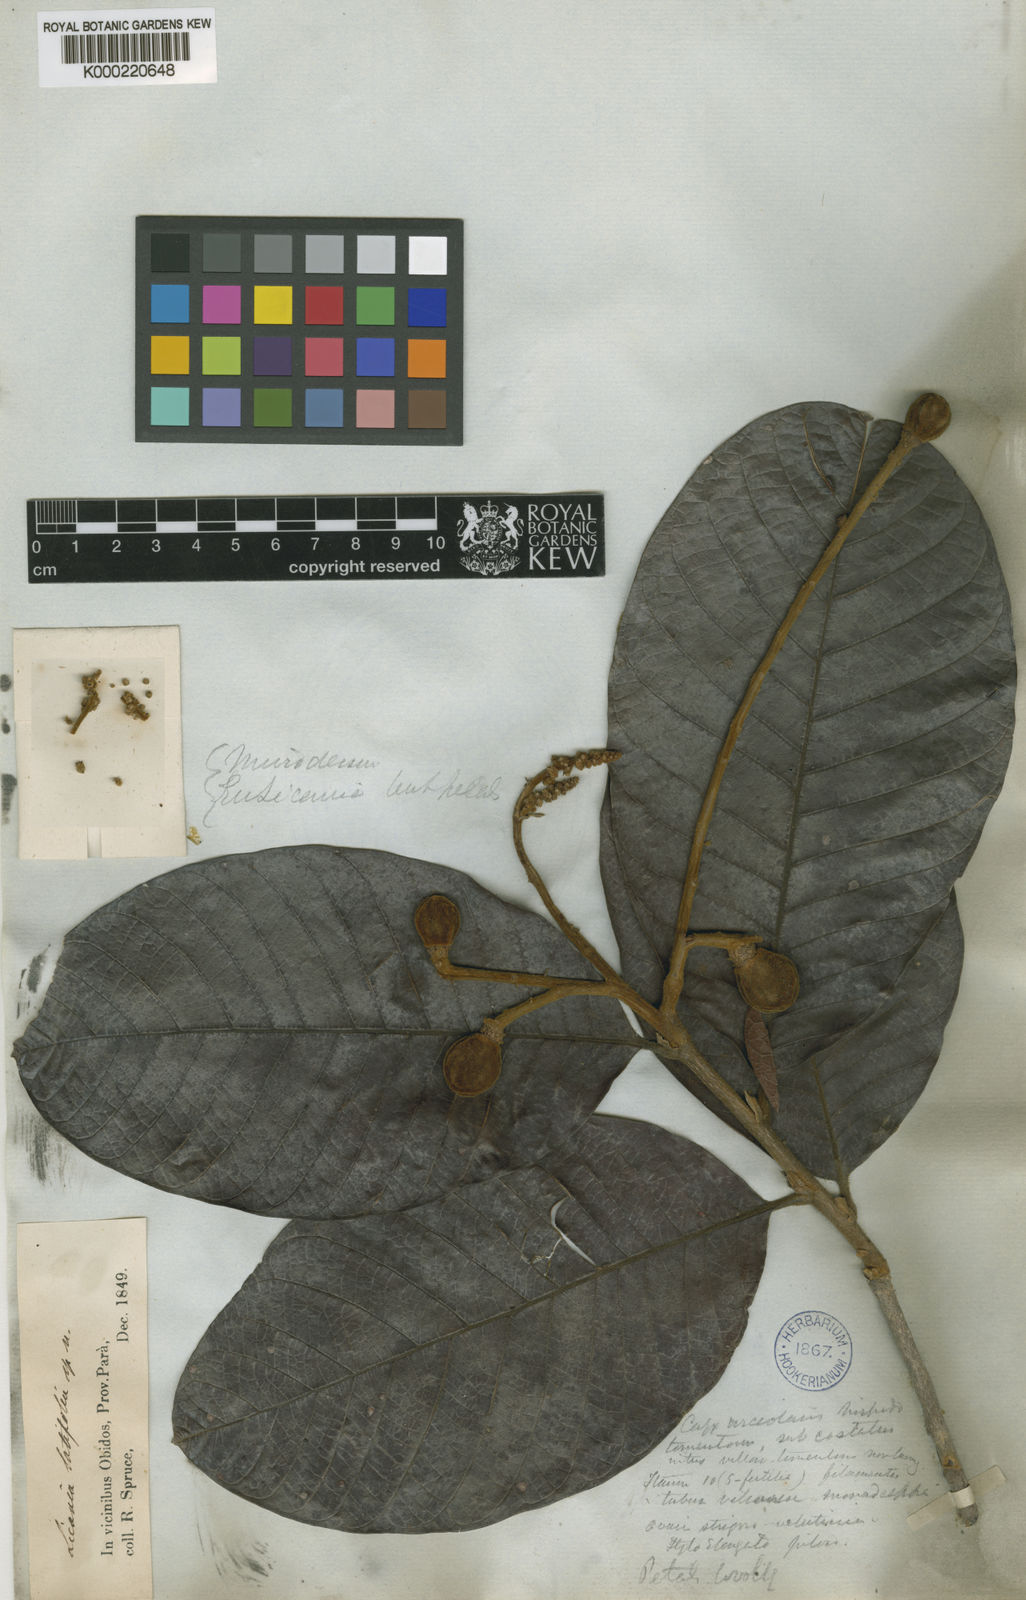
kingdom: Plantae
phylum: Tracheophyta
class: Magnoliopsida
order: Malpighiales
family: Chrysobalanaceae
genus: Hymenopus
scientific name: Hymenopus latifolius
